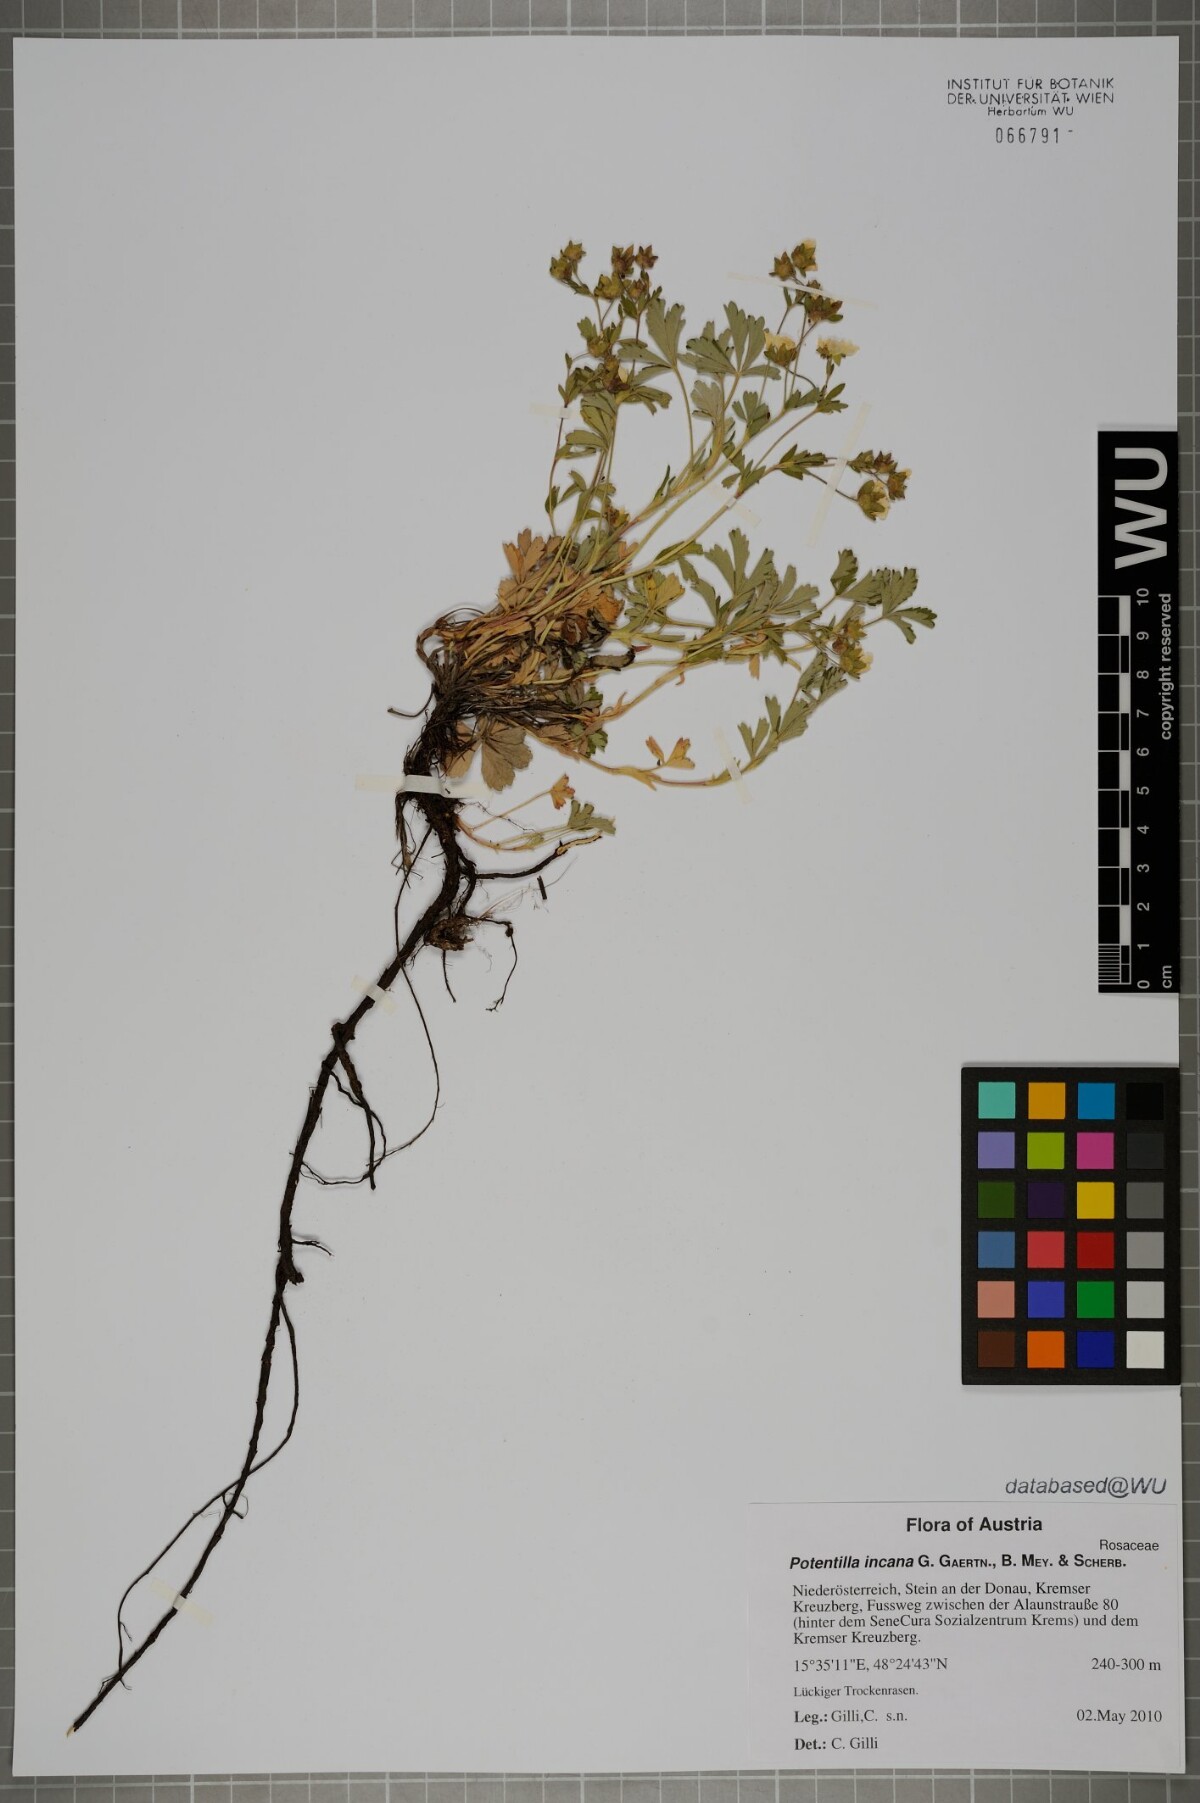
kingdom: Plantae
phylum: Tracheophyta
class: Magnoliopsida
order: Rosales
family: Rosaceae
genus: Potentilla
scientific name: Potentilla cinerea
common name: Ashy cinquefoil
